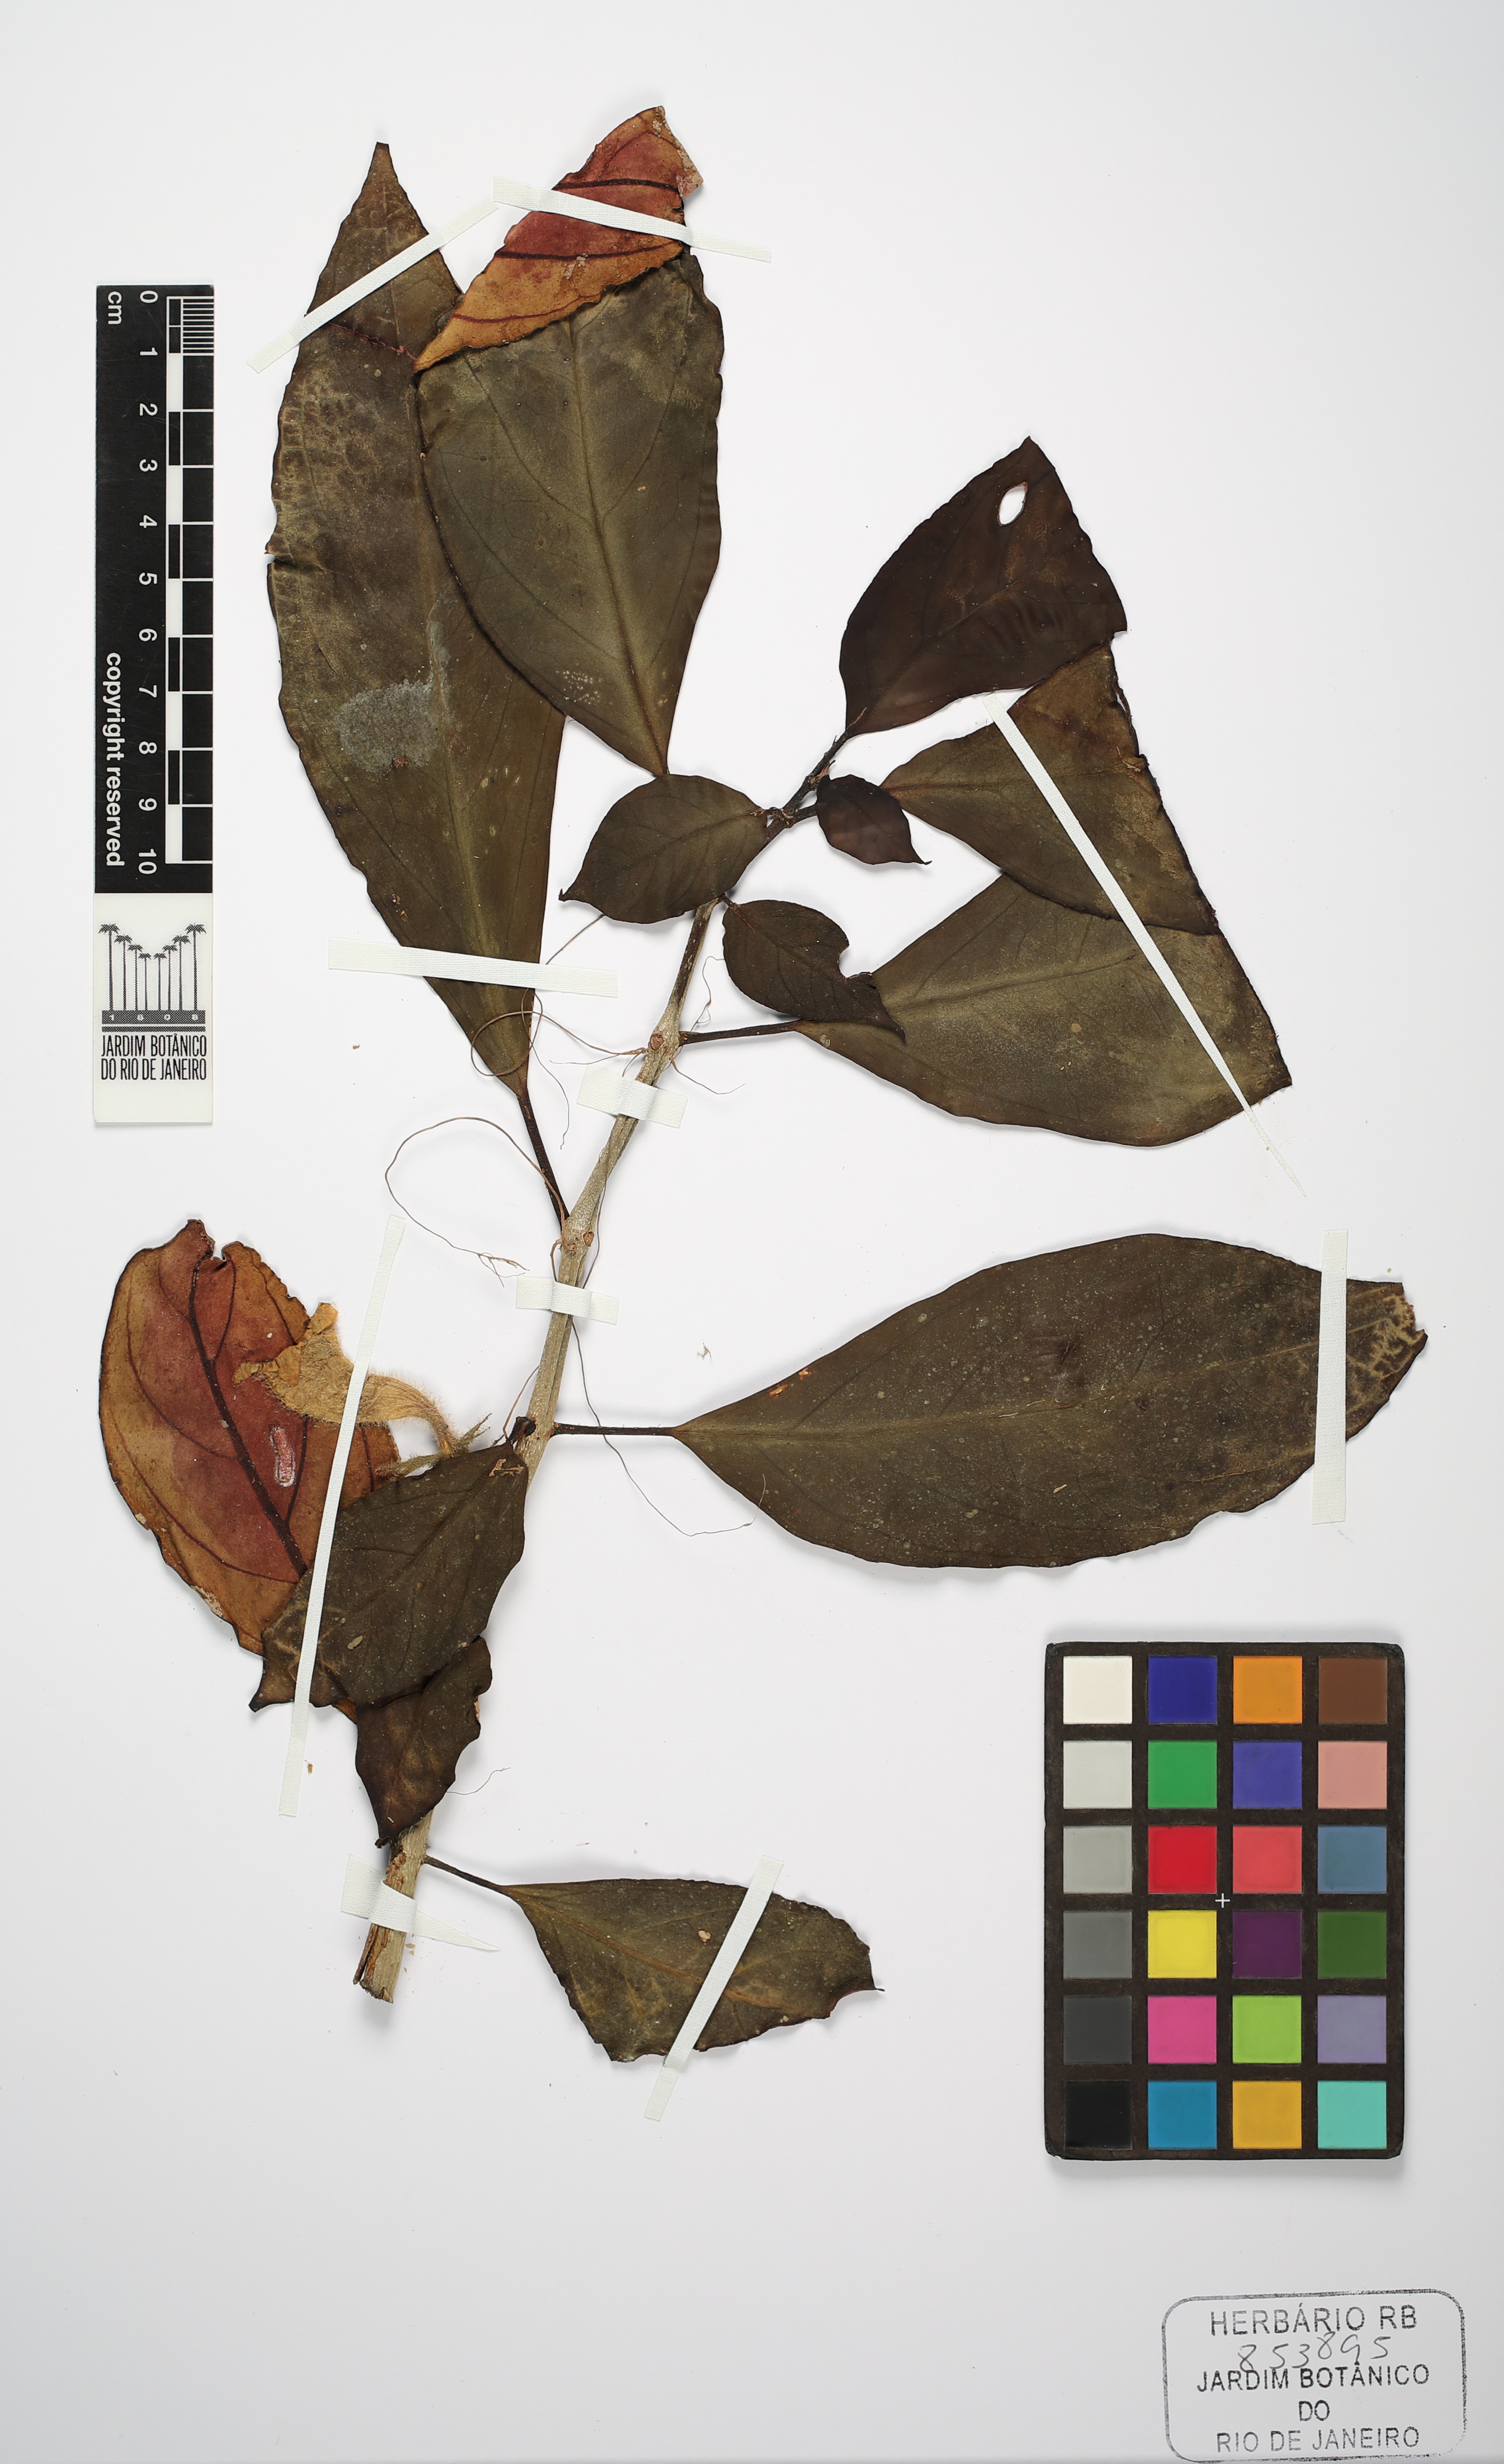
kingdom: Plantae
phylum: Tracheophyta
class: Magnoliopsida
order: Lamiales
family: Gesneriaceae
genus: Nematanthus
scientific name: Nematanthus
